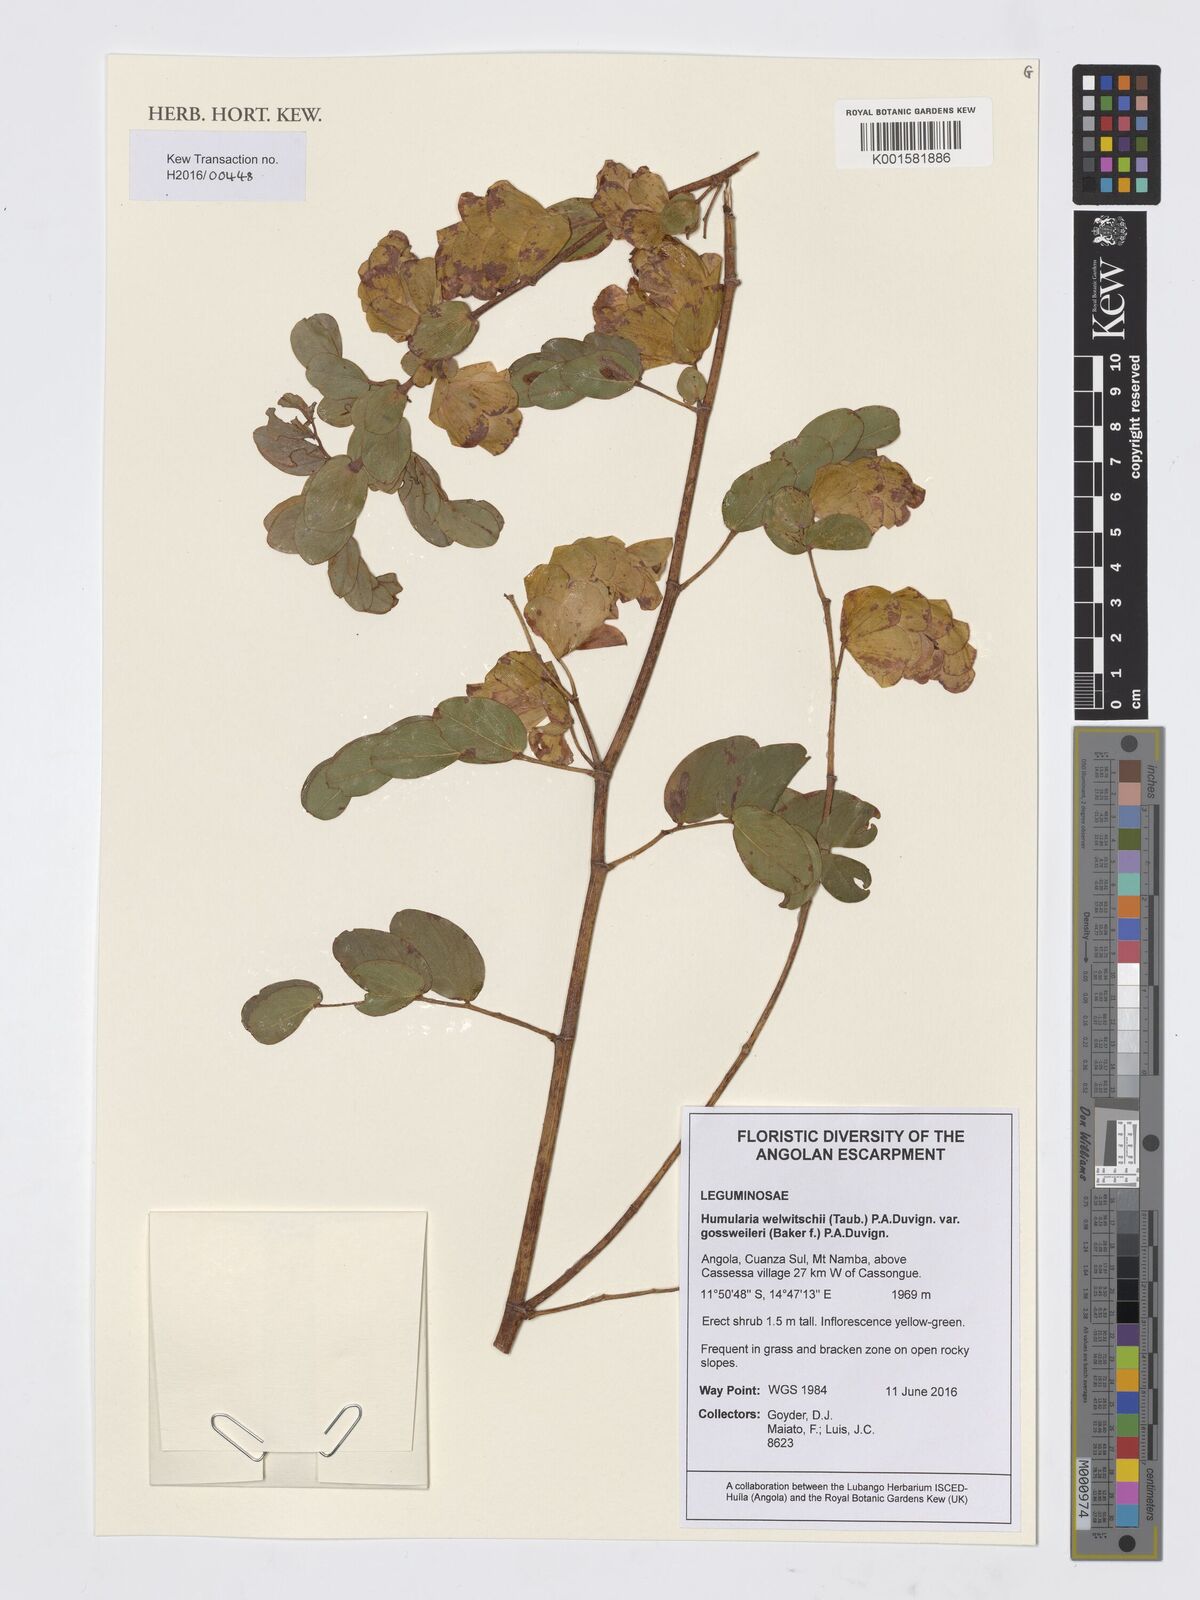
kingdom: Plantae
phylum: Tracheophyta
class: Magnoliopsida
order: Fabales
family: Fabaceae
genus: Humularia
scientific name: Humularia welwitschii
